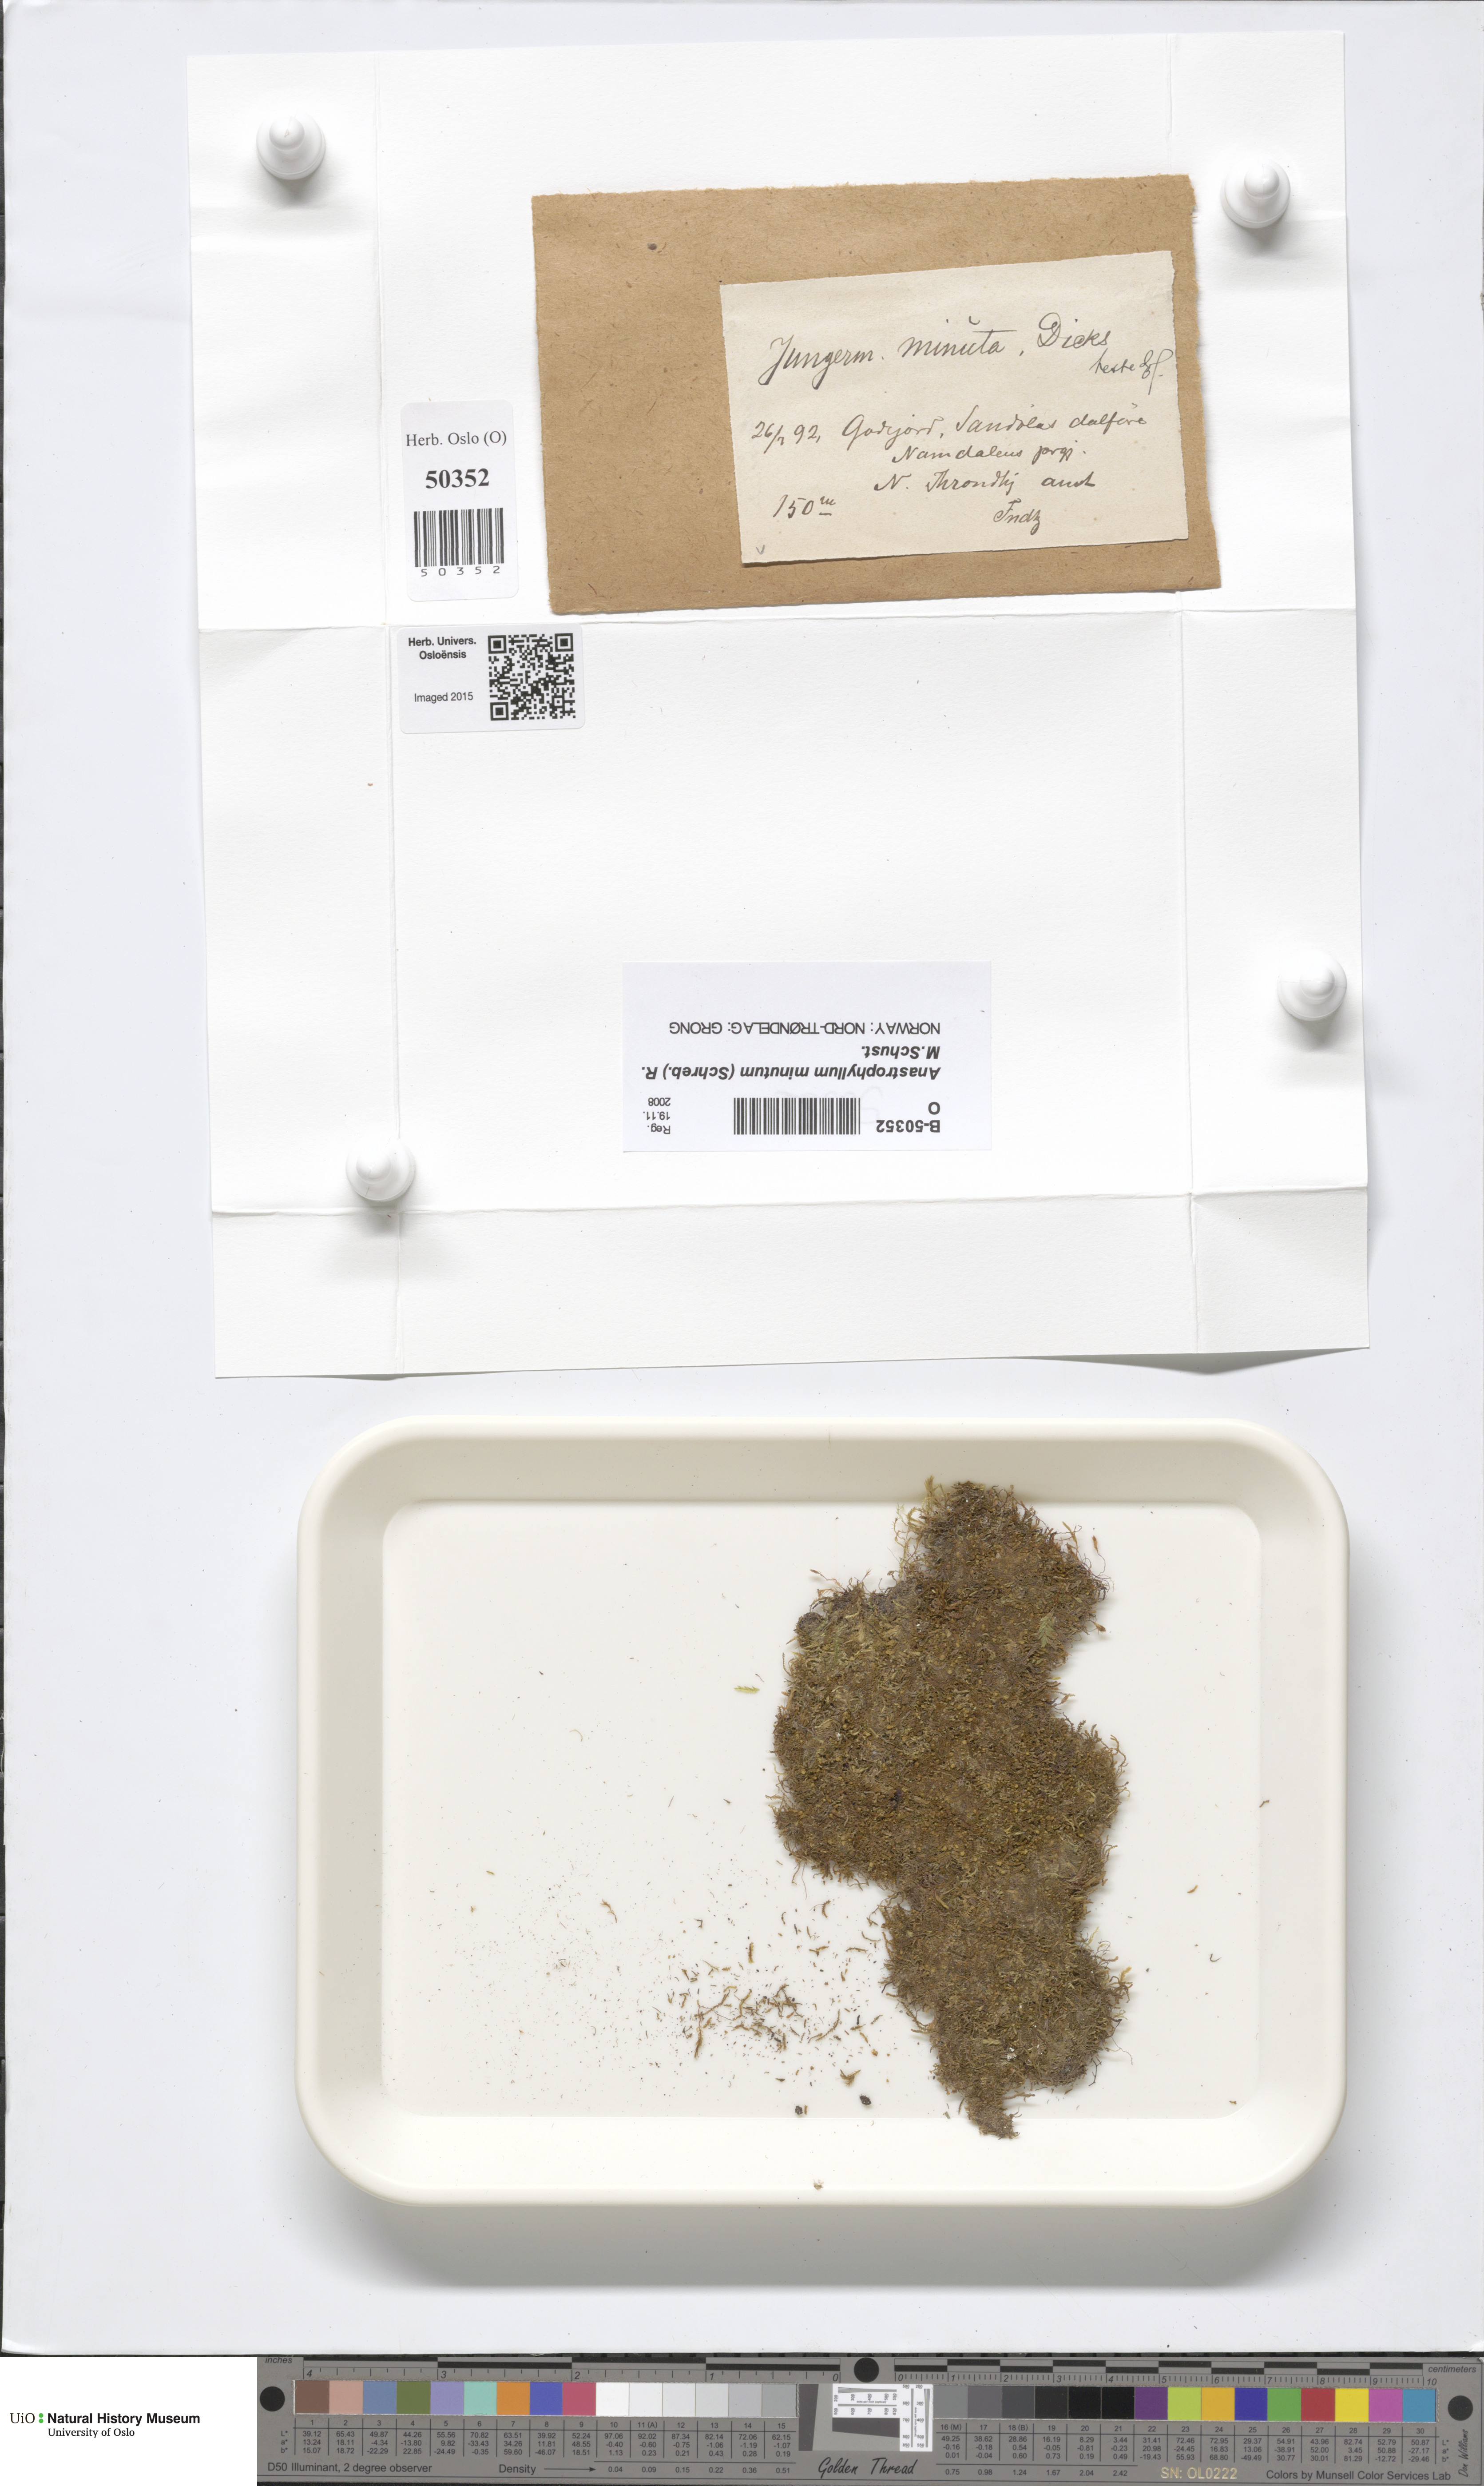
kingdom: Plantae
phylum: Marchantiophyta
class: Jungermanniopsida
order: Jungermanniales
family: Anastrophyllaceae
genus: Sphenolobus
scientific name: Sphenolobus minutus
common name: Comb notchwort
